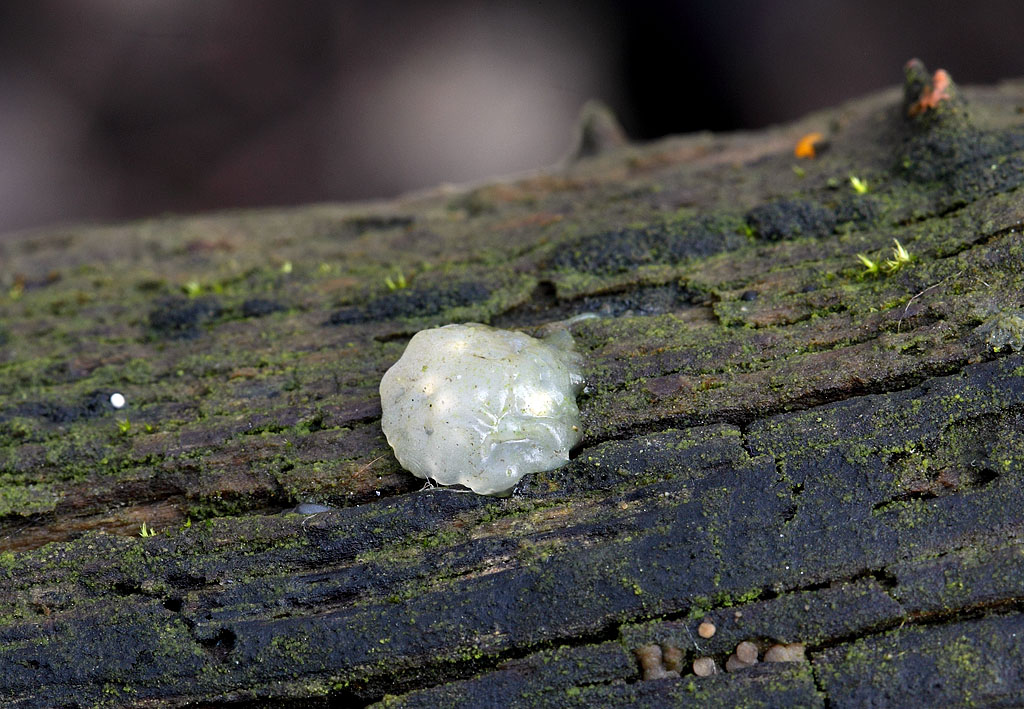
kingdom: Fungi
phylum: Basidiomycota
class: Agaricomycetes
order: Auriculariales
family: Hyaloriaceae
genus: Myxarium
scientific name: Myxarium nucleatum
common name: klar bævretop
